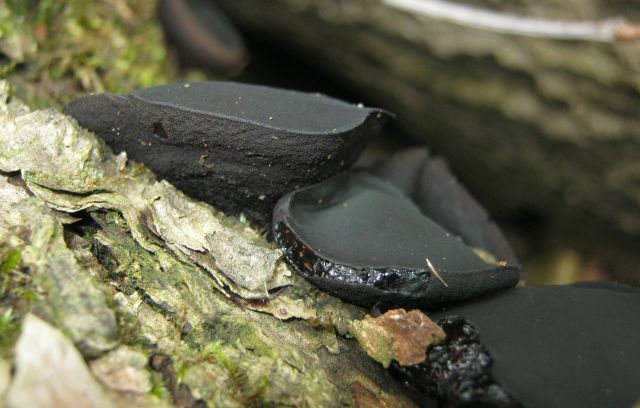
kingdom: Fungi
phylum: Ascomycota
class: Leotiomycetes
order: Phacidiales
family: Phacidiaceae
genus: Bulgaria
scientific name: Bulgaria inquinans
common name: afsmittende topsvamp
